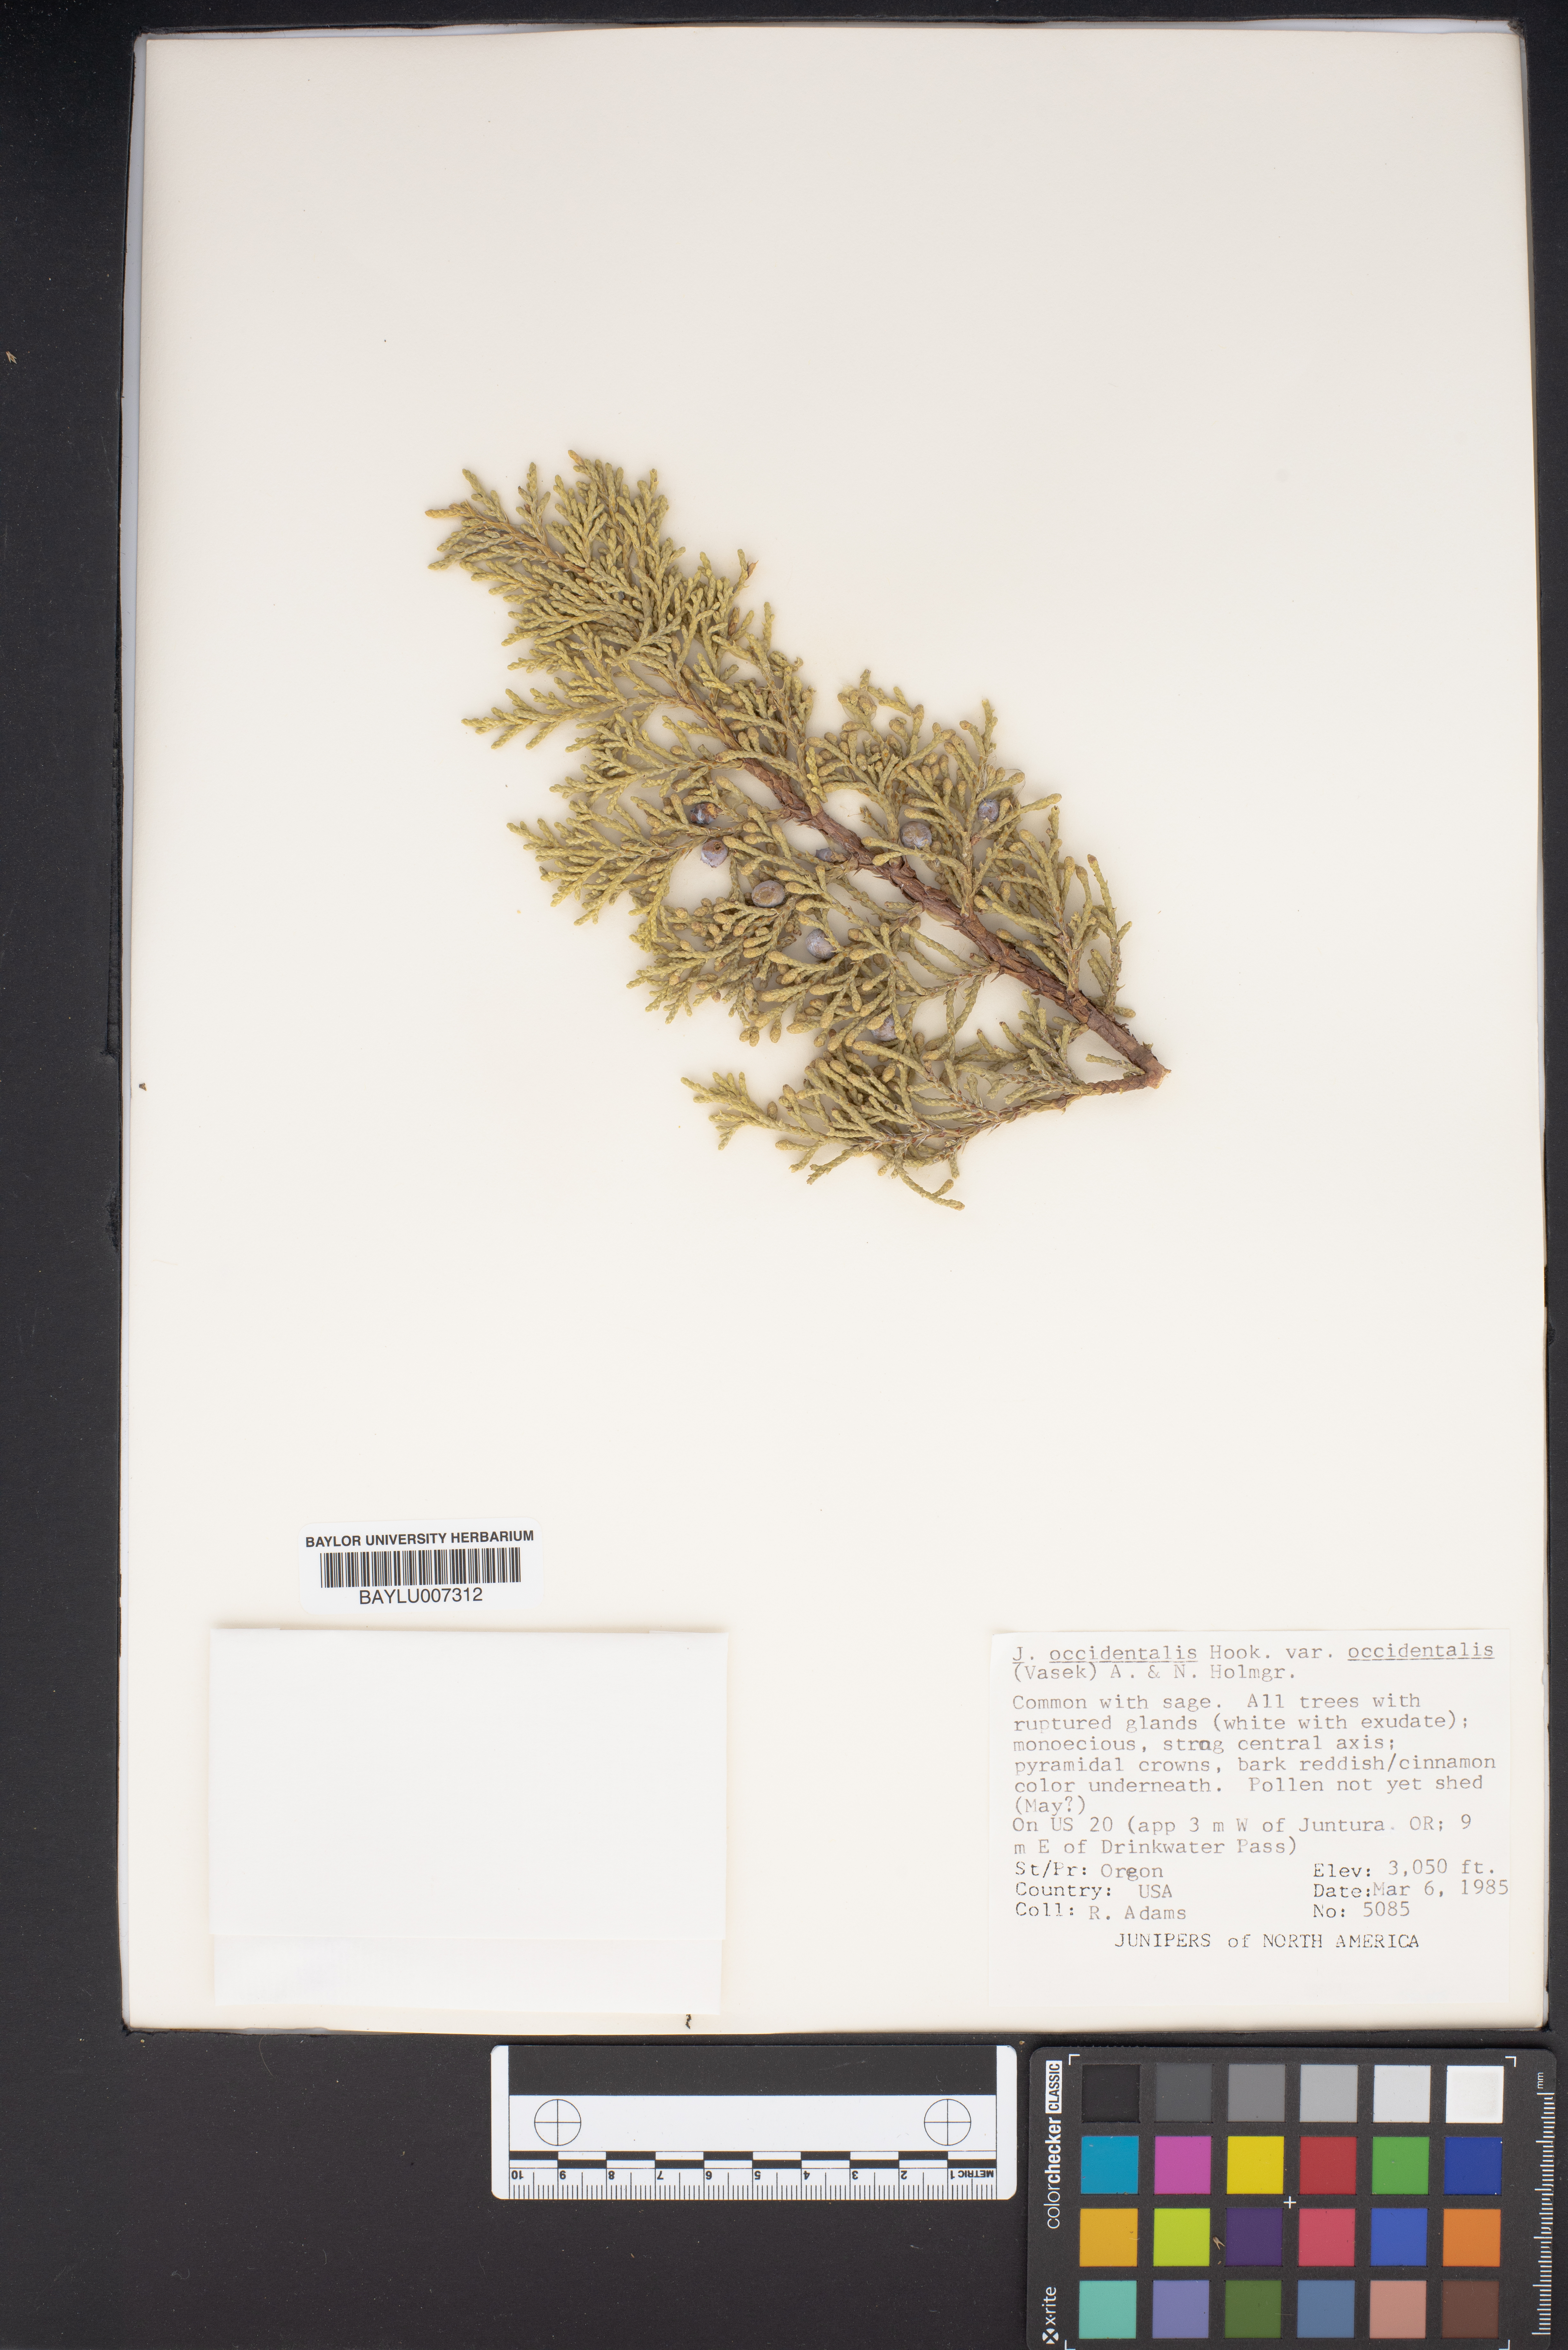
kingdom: Plantae
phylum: Tracheophyta
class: Pinopsida
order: Pinales
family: Cupressaceae
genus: Juniperus
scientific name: Juniperus occidentalis
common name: Western juniper
